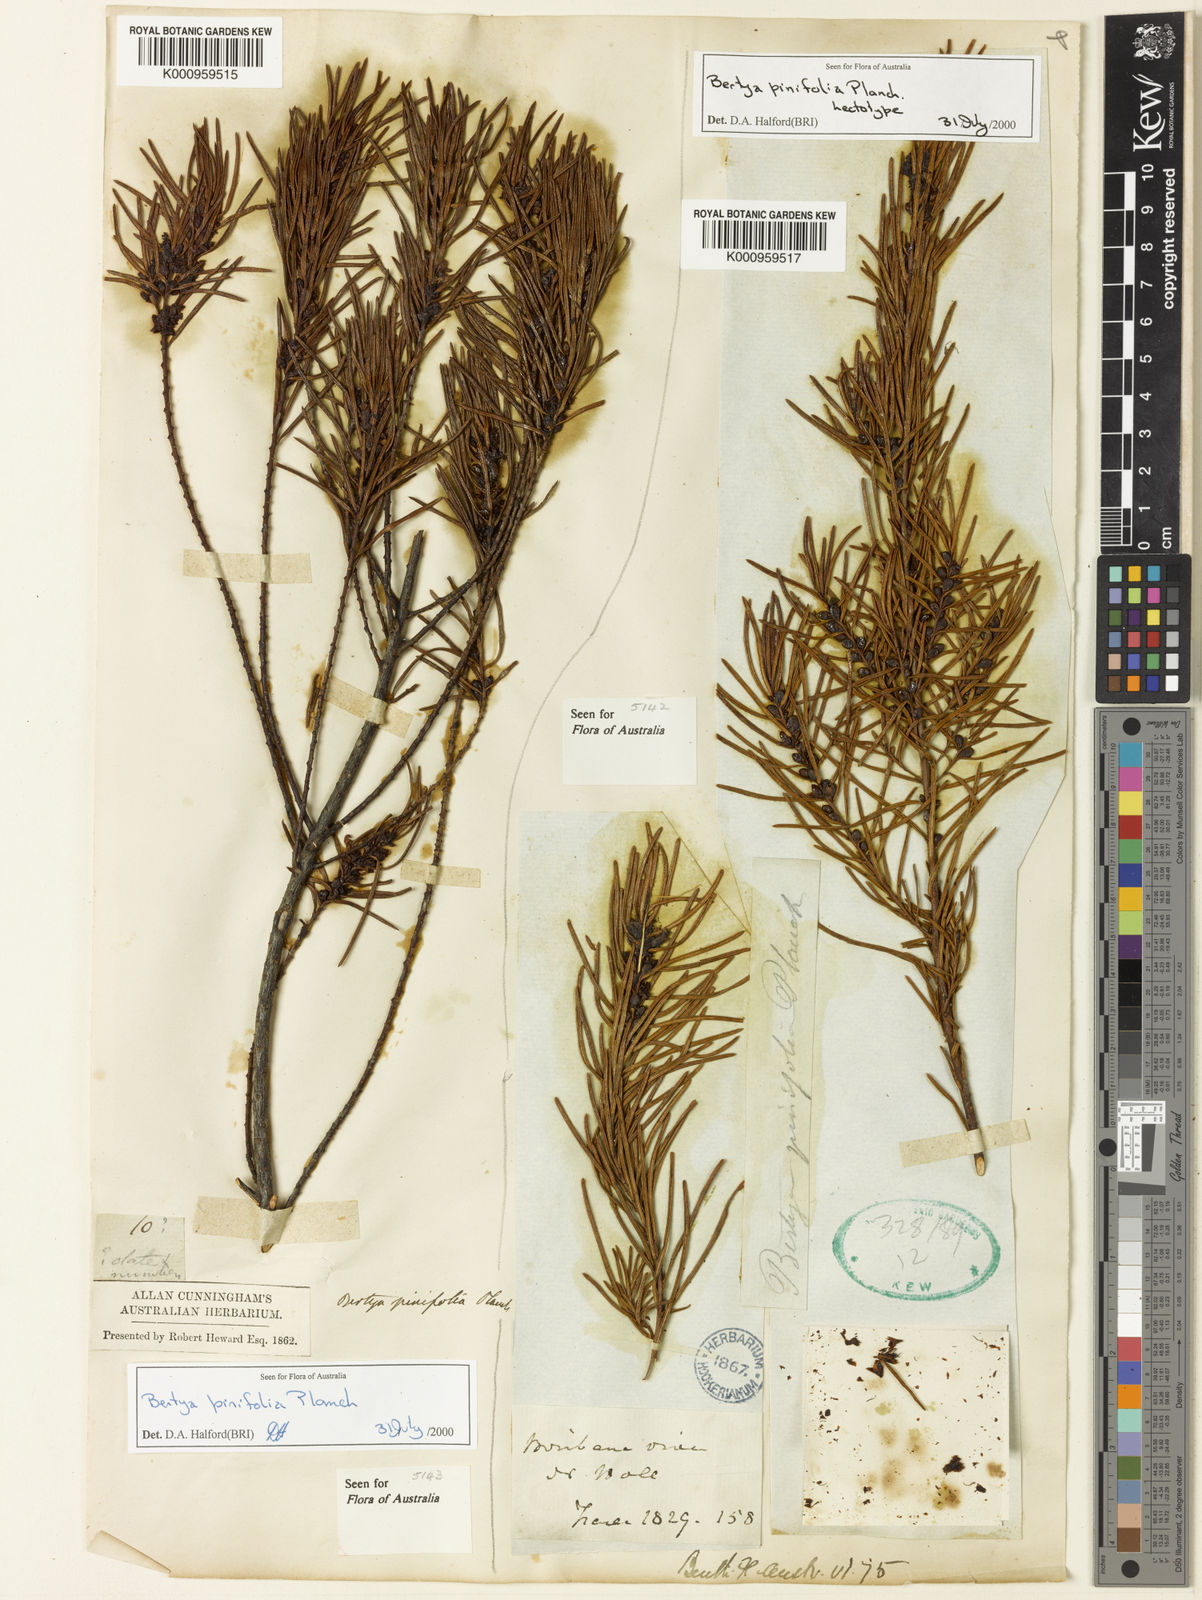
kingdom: Plantae
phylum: Tracheophyta
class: Magnoliopsida
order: Malpighiales
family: Euphorbiaceae
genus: Bertya
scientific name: Bertya pinifolia
